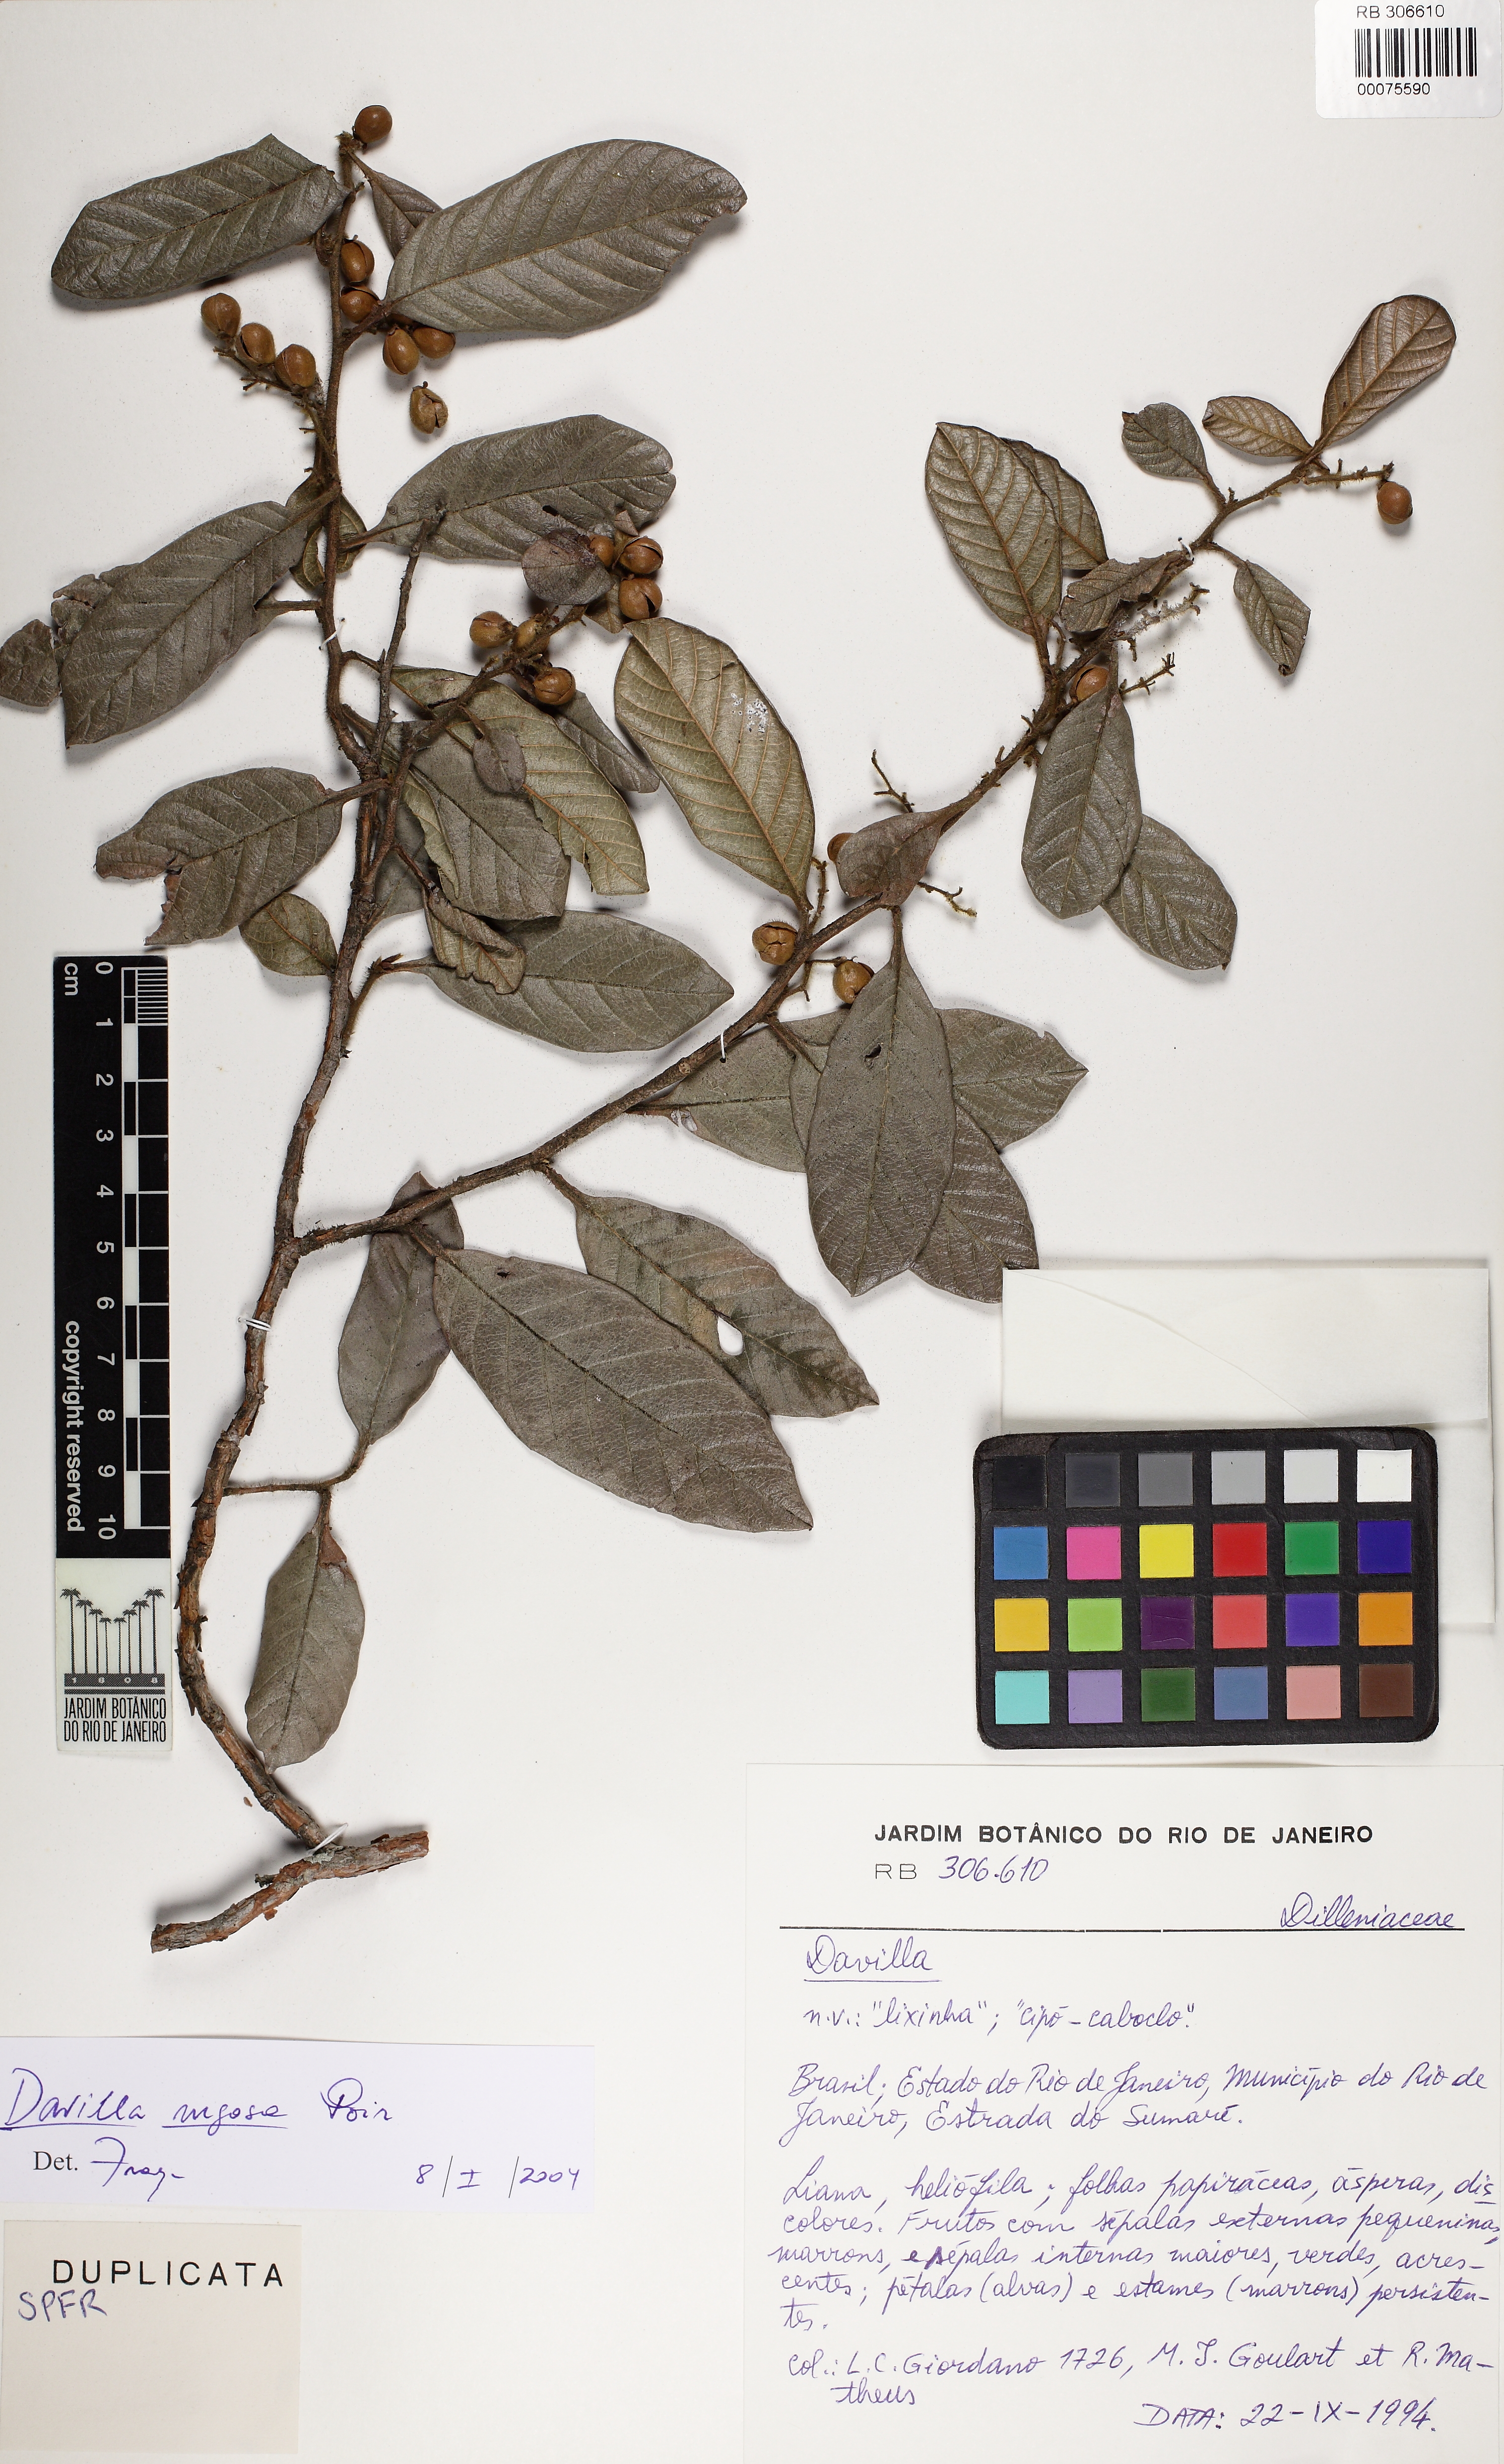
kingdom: Plantae
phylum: Tracheophyta
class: Magnoliopsida
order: Dilleniales
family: Dilleniaceae
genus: Davilla
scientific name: Davilla rugosa
